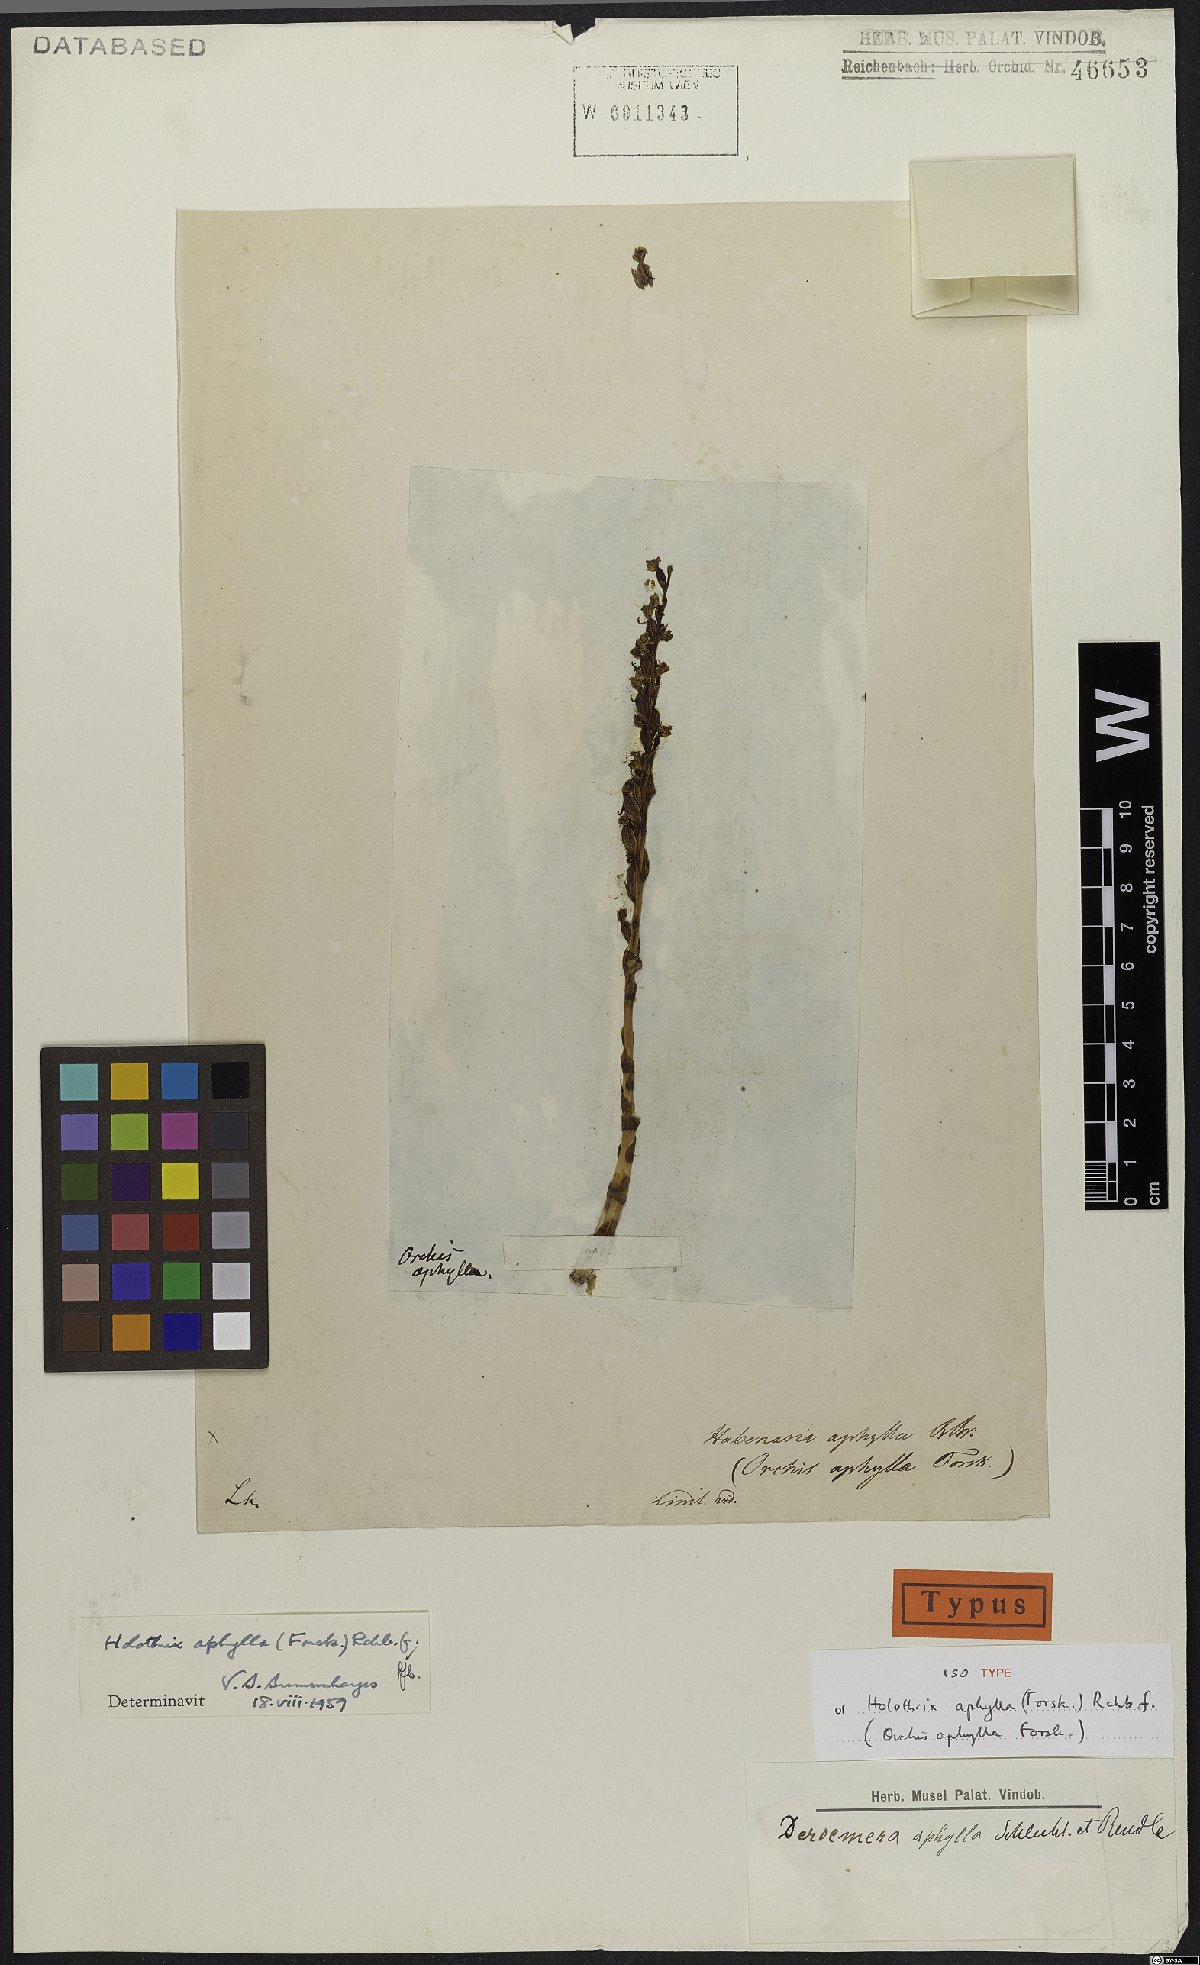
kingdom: Plantae
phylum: Tracheophyta
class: Liliopsida
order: Asparagales
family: Orchidaceae
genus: Holothrix
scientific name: Holothrix aphylla
